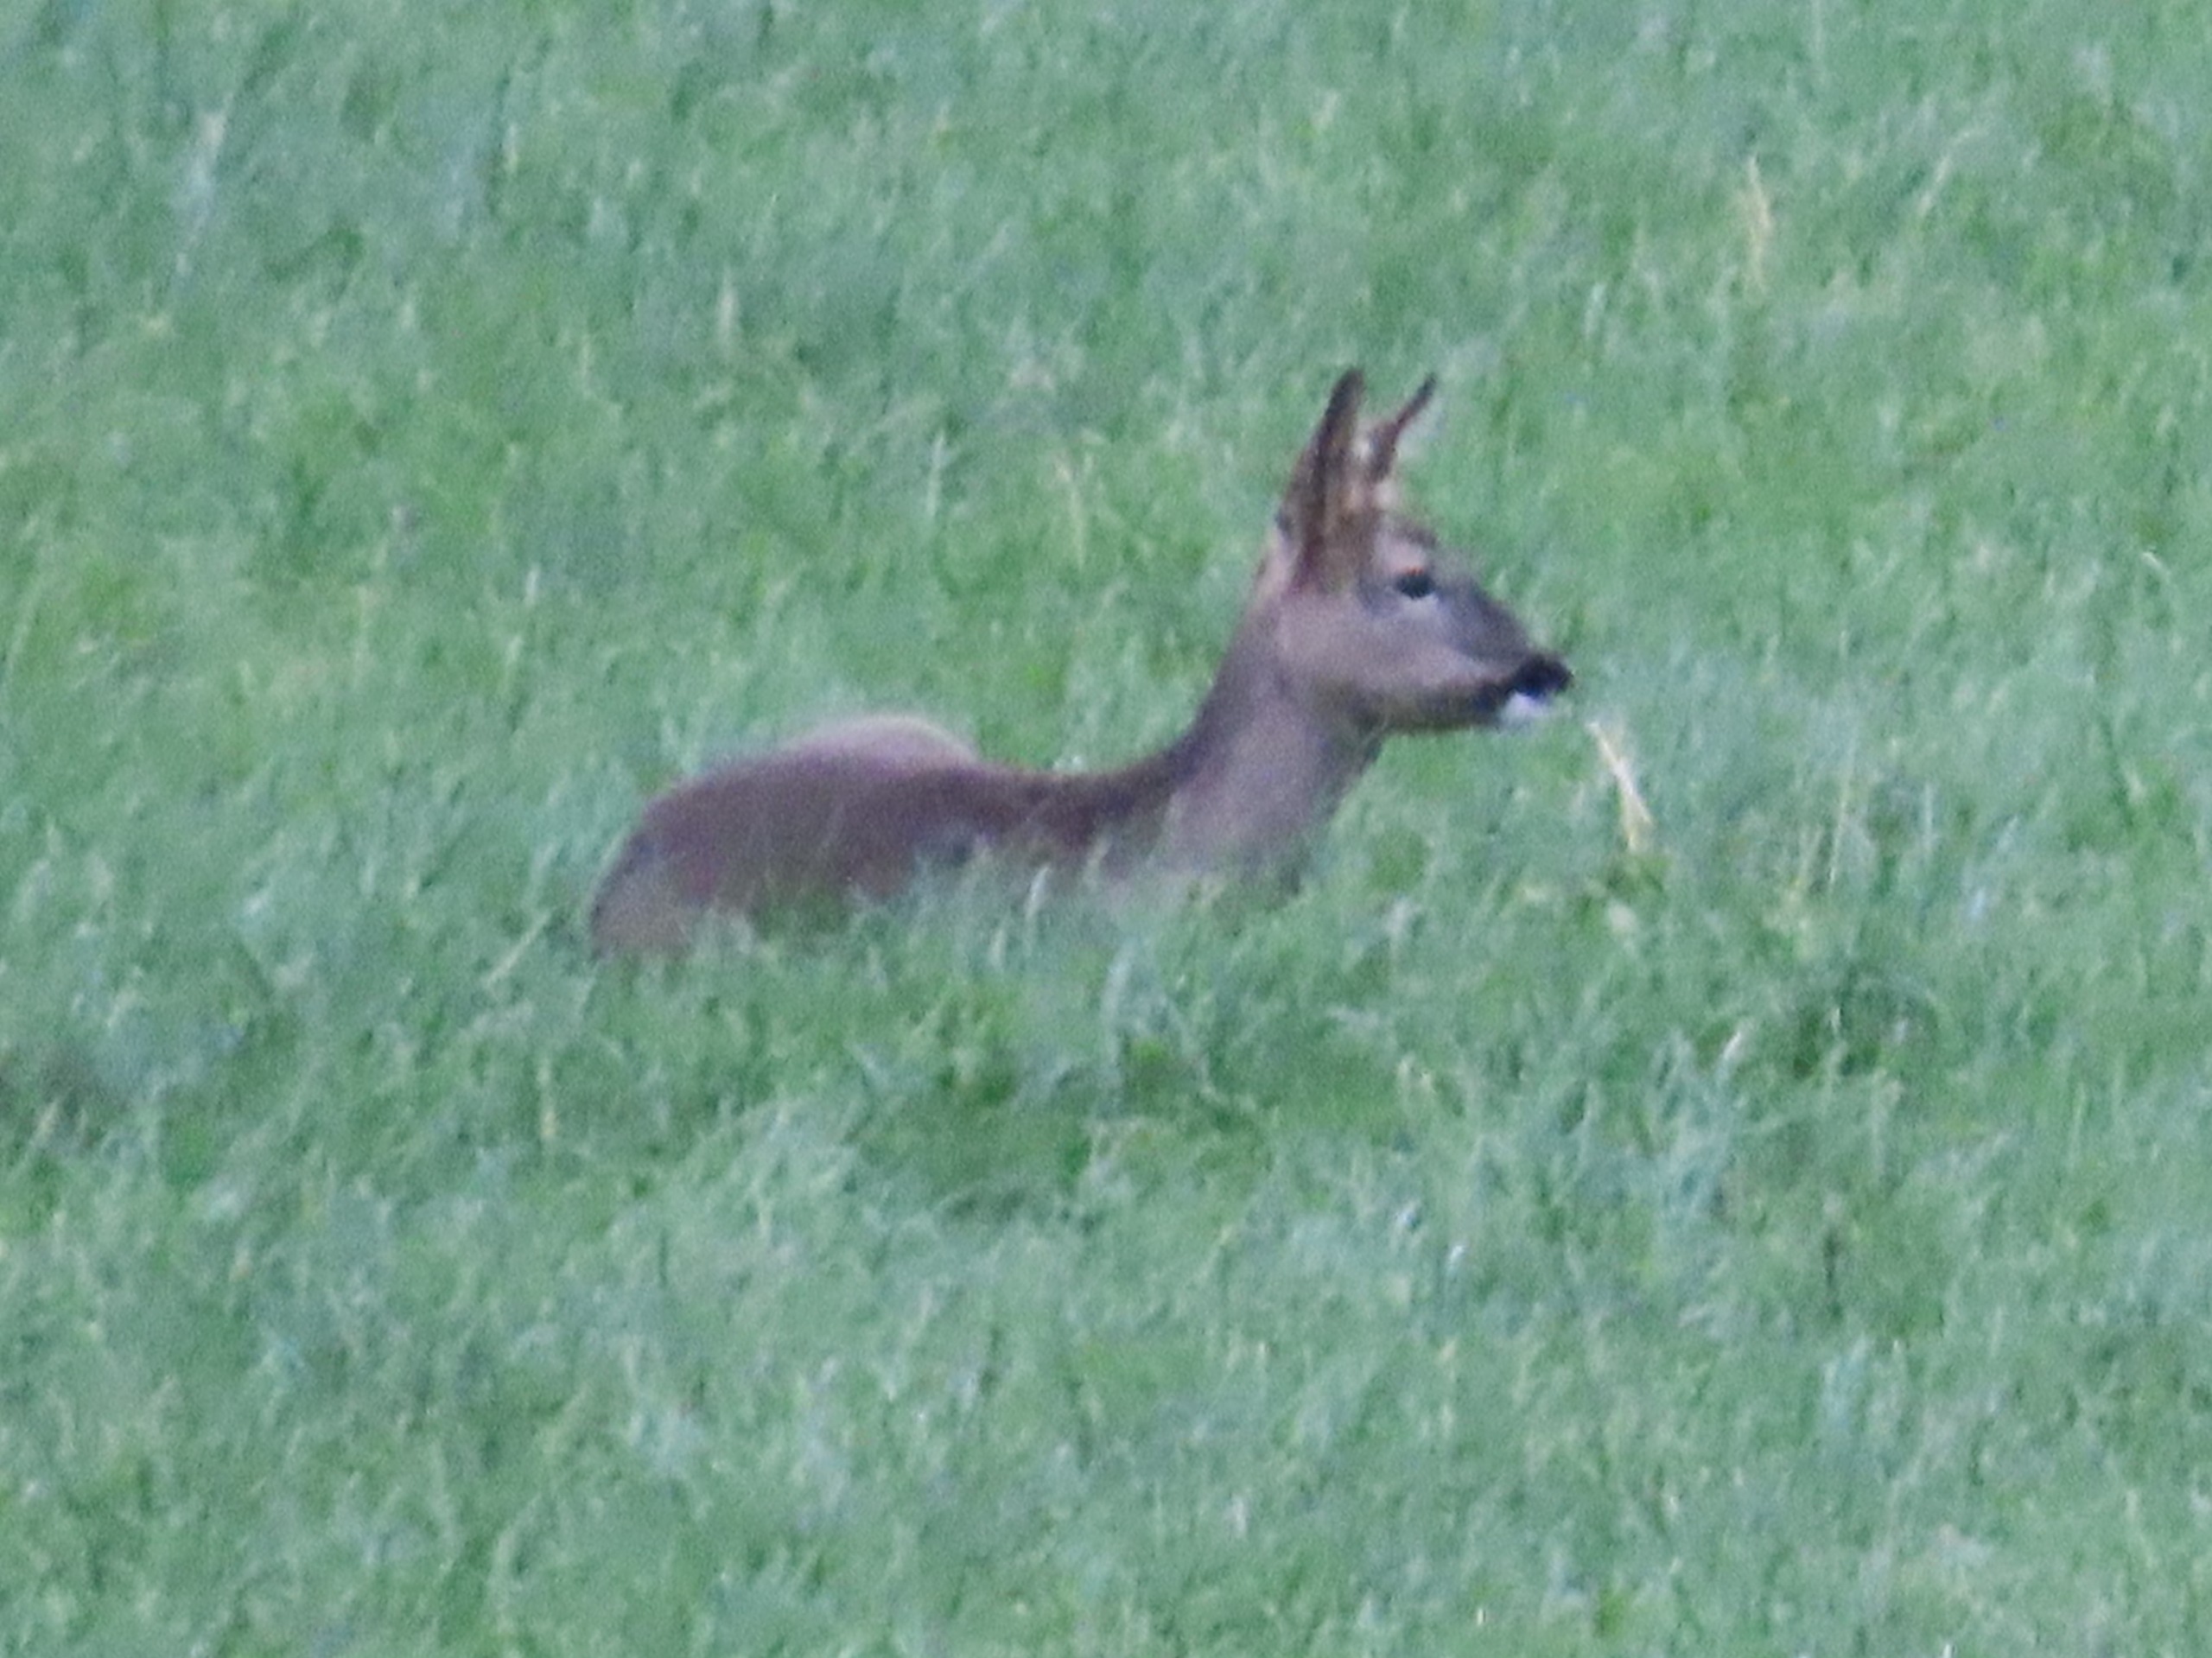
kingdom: Animalia
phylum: Chordata
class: Mammalia
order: Artiodactyla
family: Cervidae
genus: Capreolus
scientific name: Capreolus capreolus
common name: Rådyr
